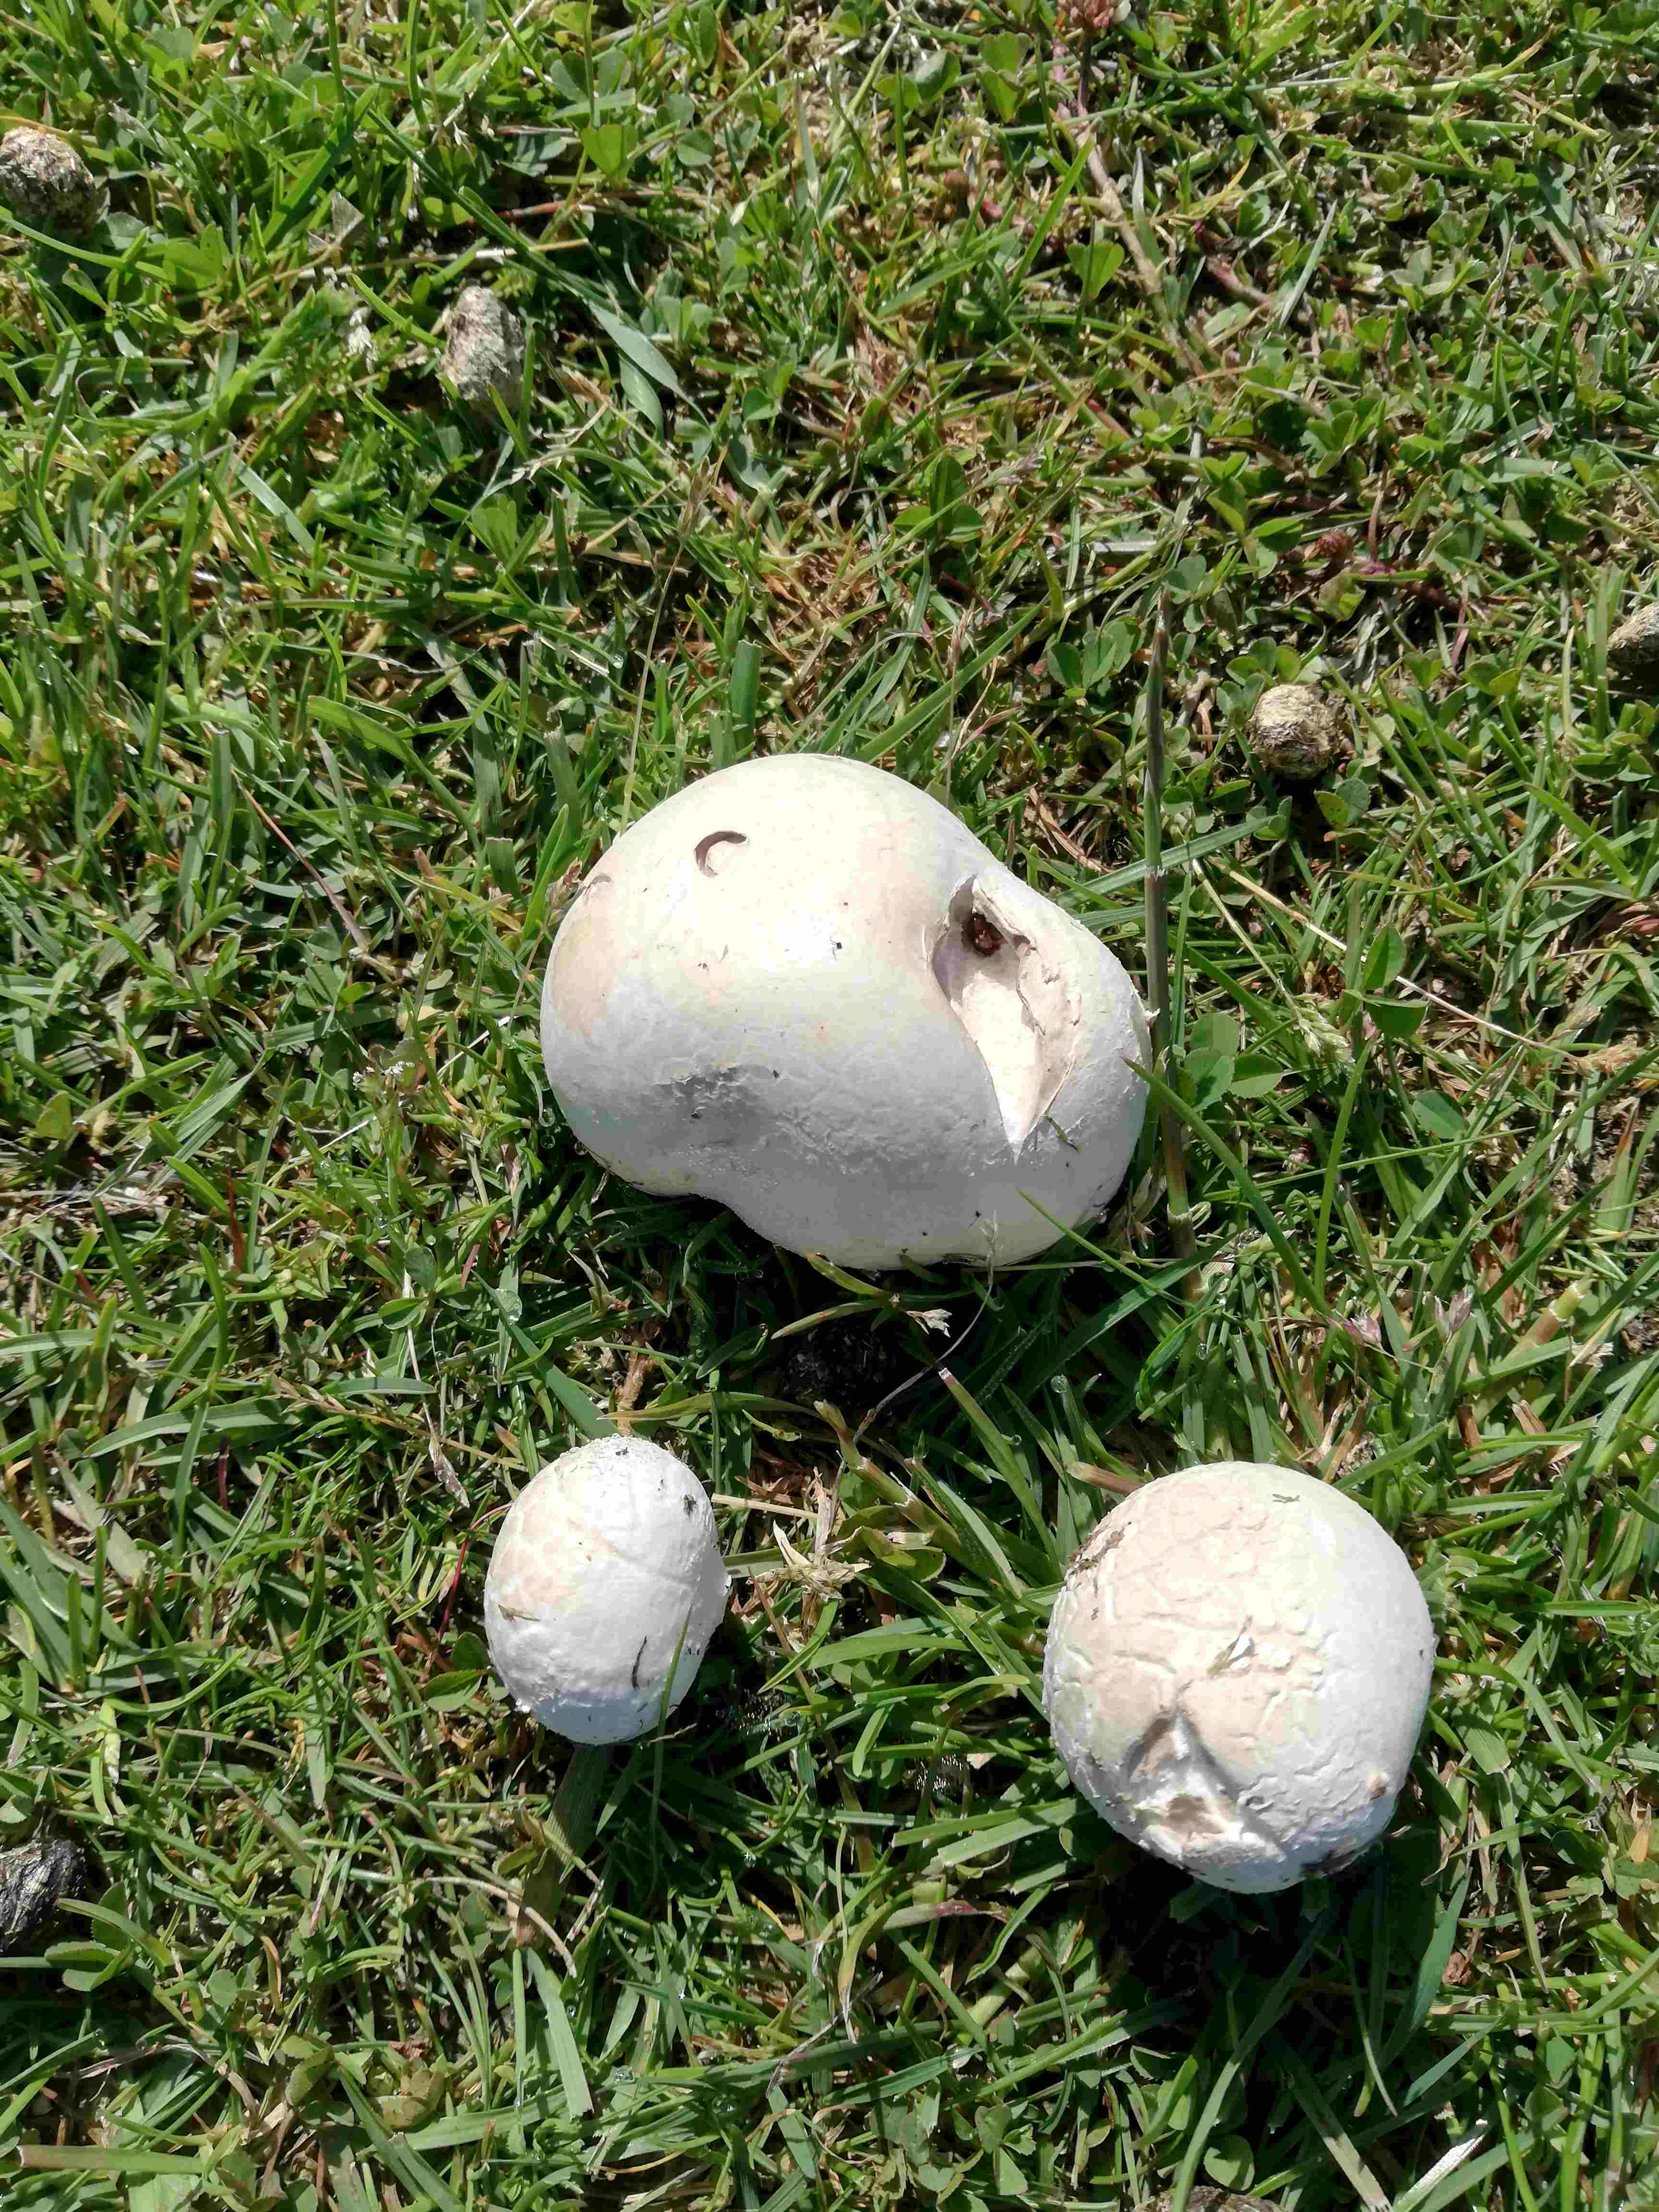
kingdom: Fungi
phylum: Basidiomycota
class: Agaricomycetes
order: Agaricales
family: Lycoperdaceae
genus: Calvatia
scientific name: Calvatia gigantea
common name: kæmpestøvbold
